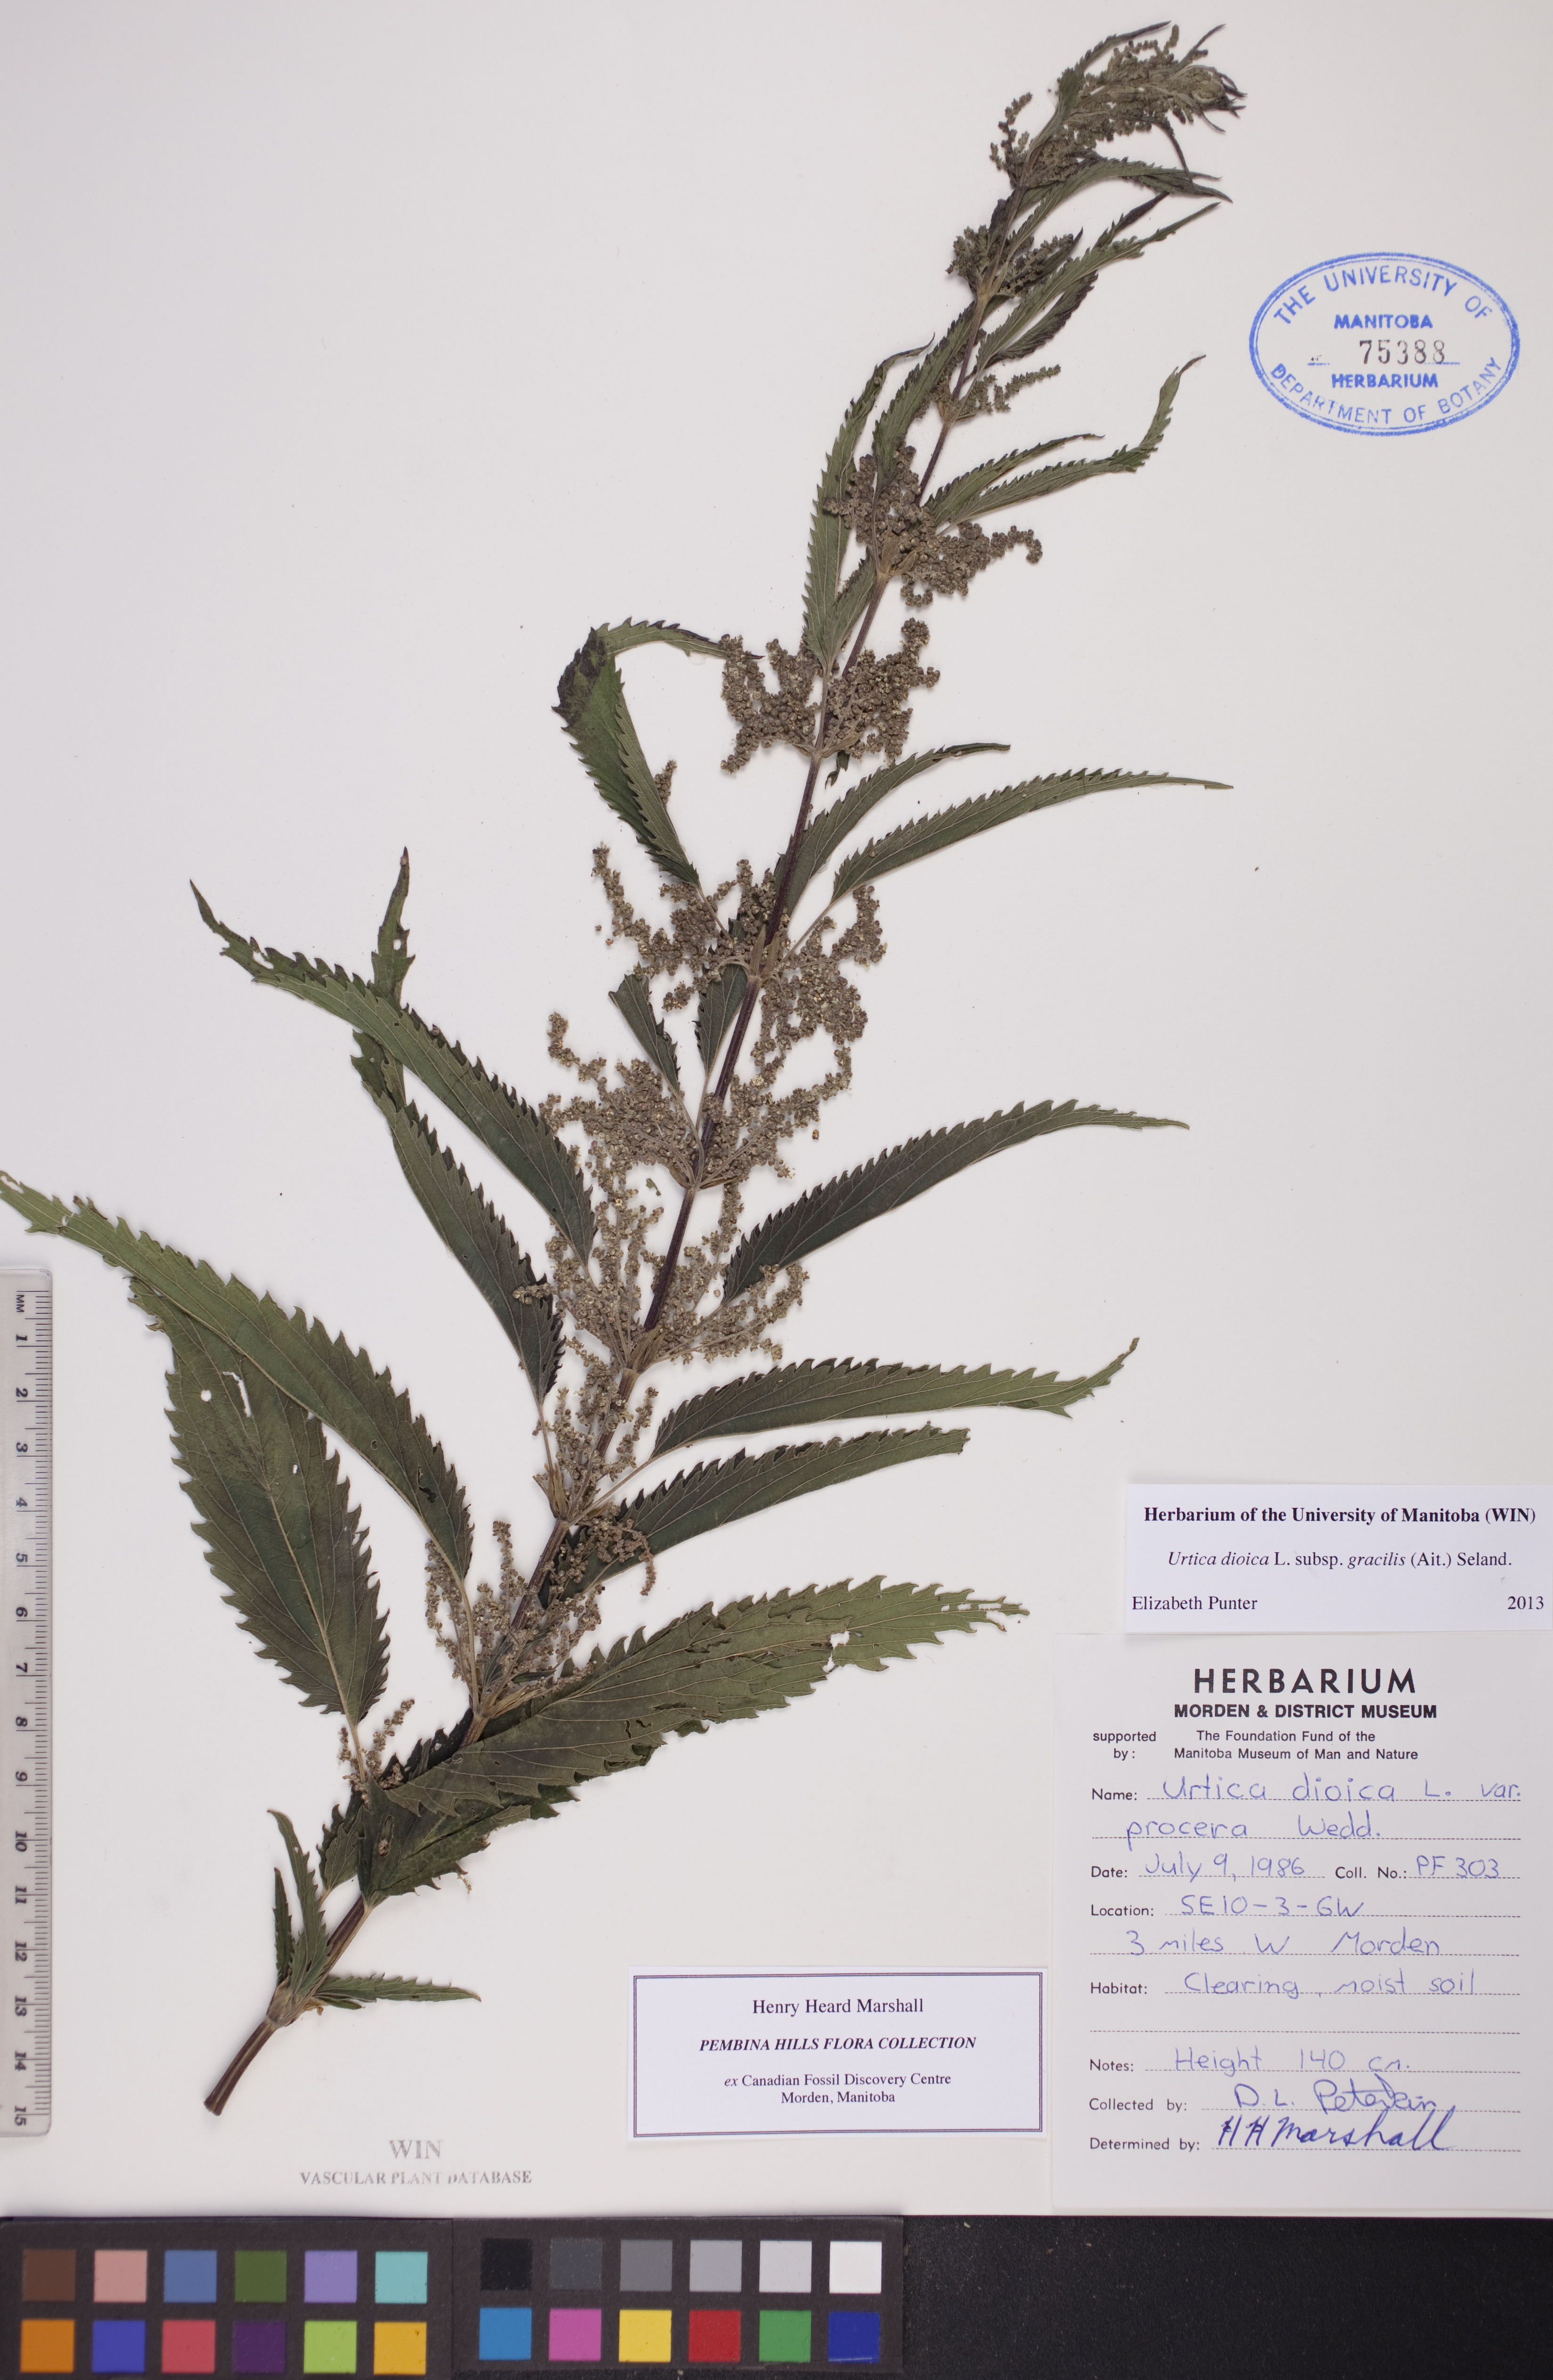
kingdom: Plantae
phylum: Tracheophyta
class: Magnoliopsida
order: Rosales
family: Urticaceae
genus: Urtica
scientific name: Urtica gracilis
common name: Slender stinging nettle
